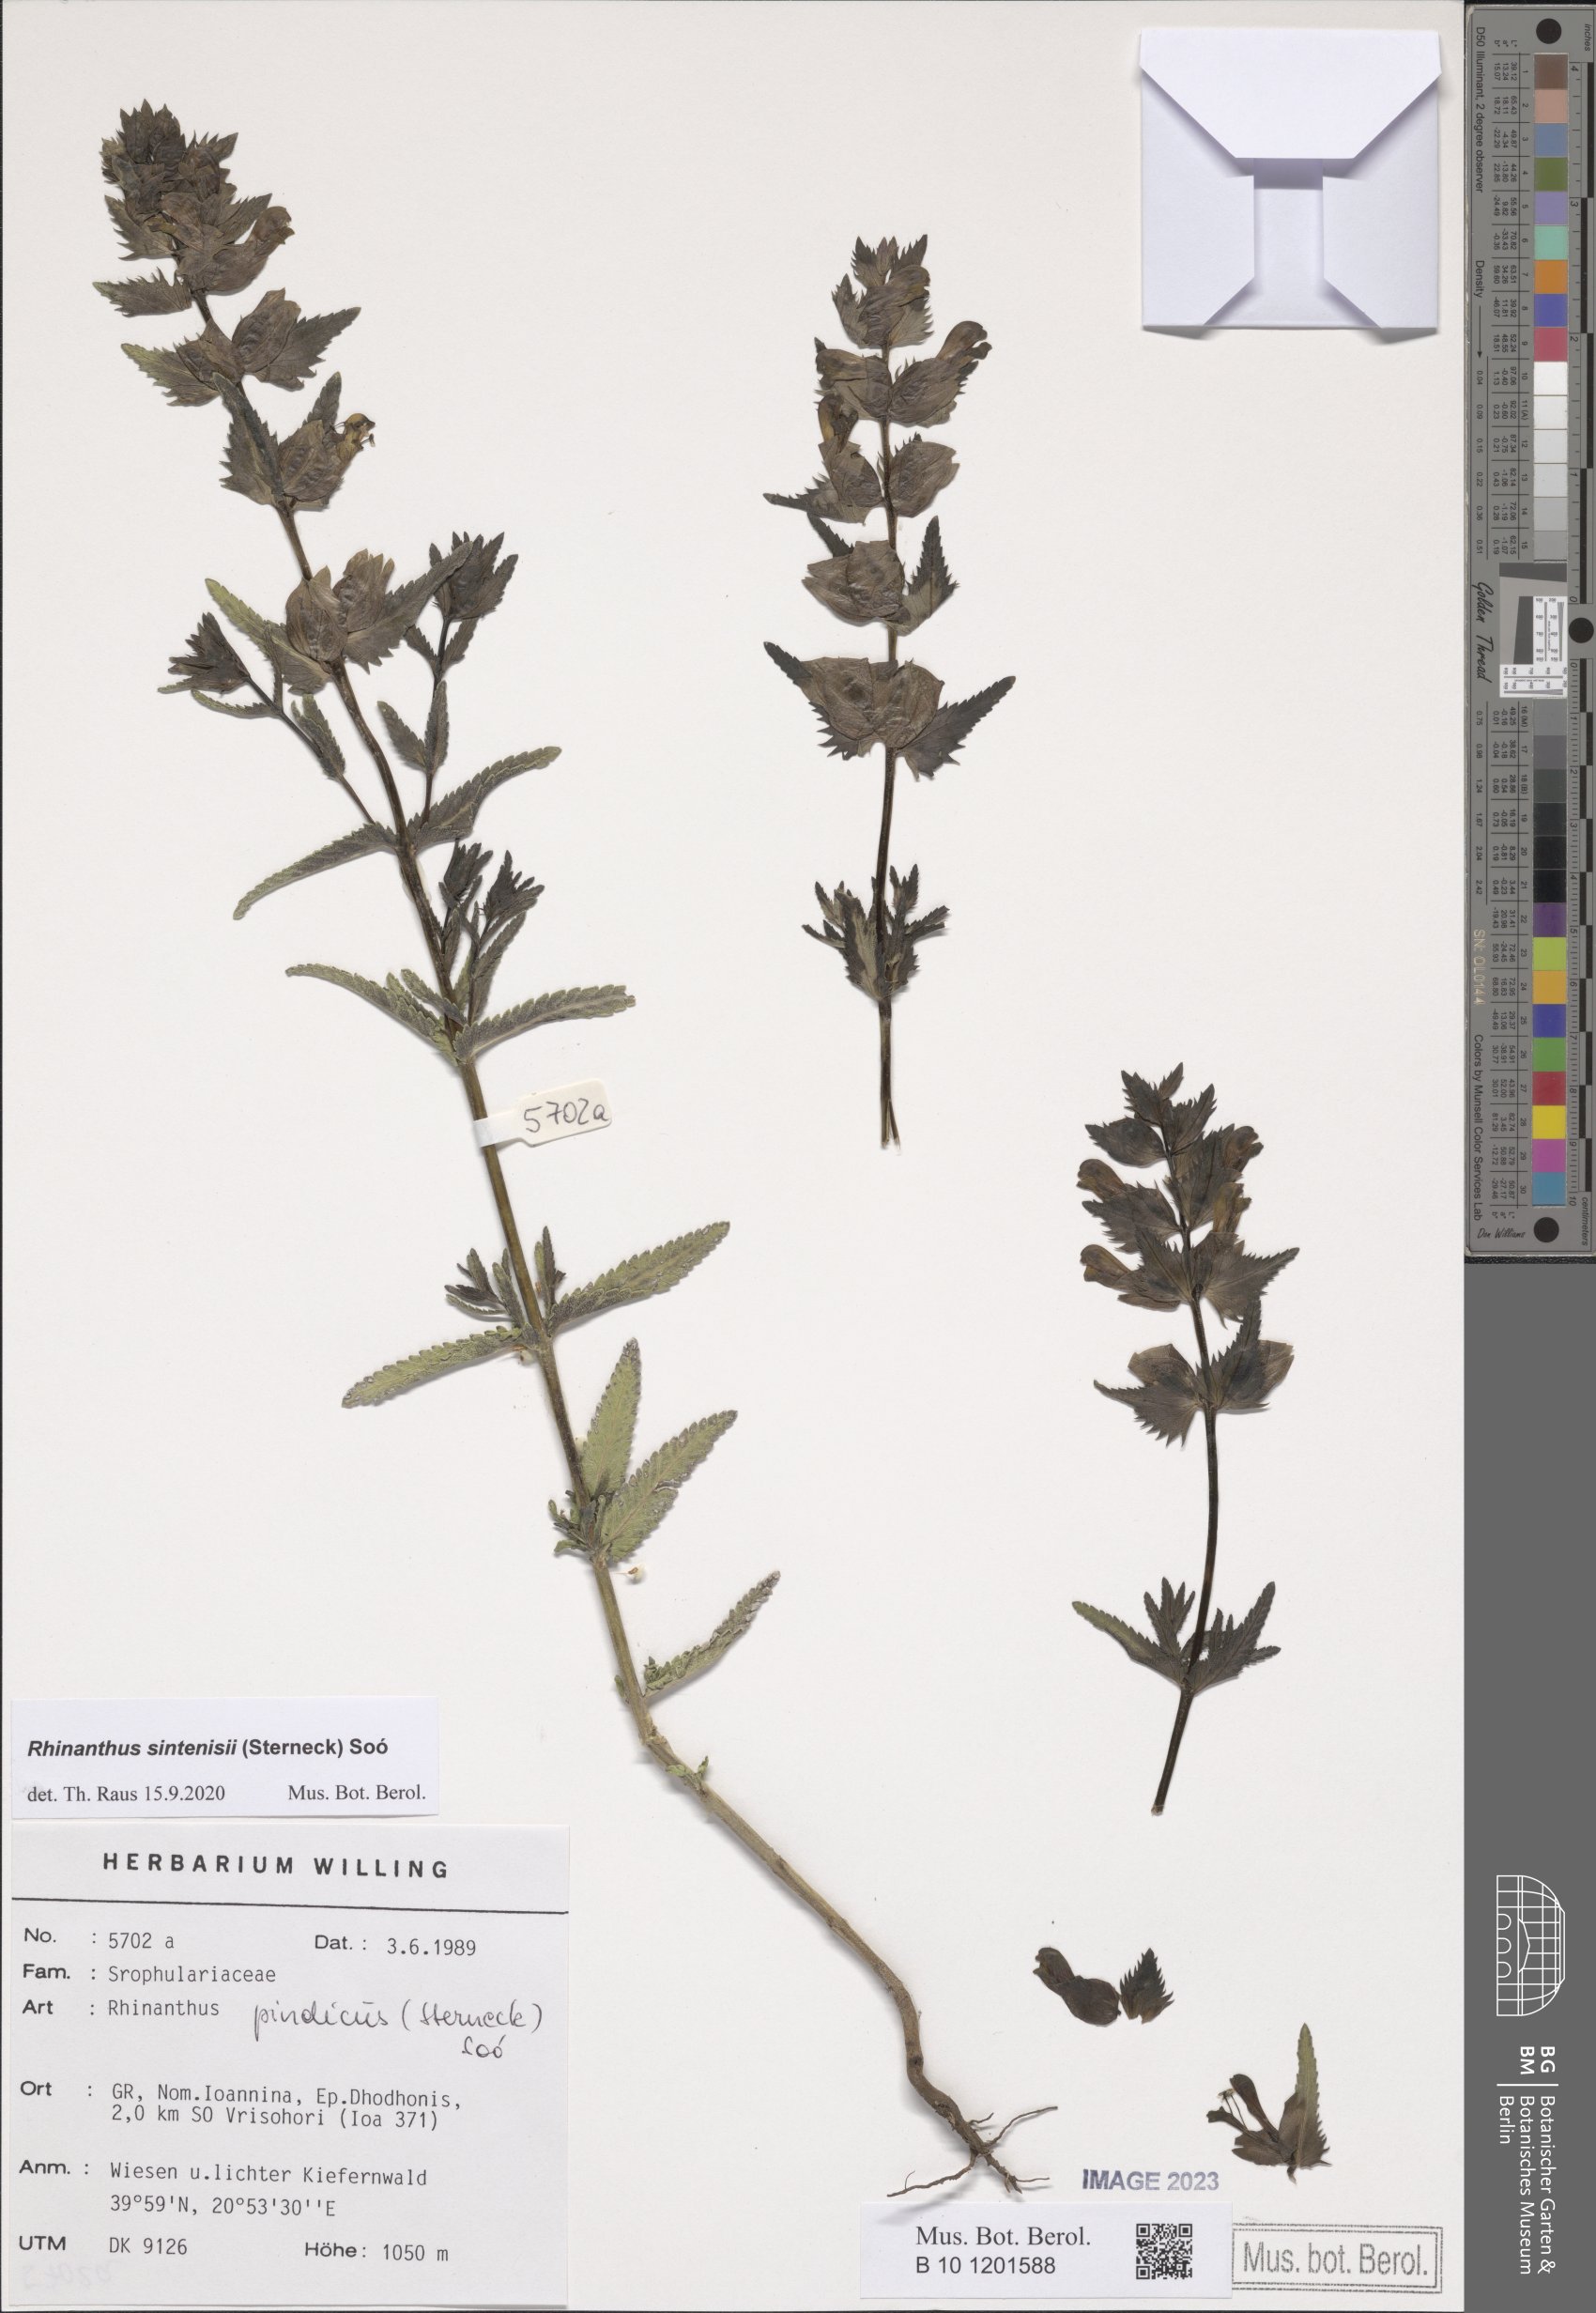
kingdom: Plantae
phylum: Tracheophyta
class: Magnoliopsida
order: Lamiales
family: Orobanchaceae
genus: Rhinanthus
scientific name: Rhinanthus sintenisii
